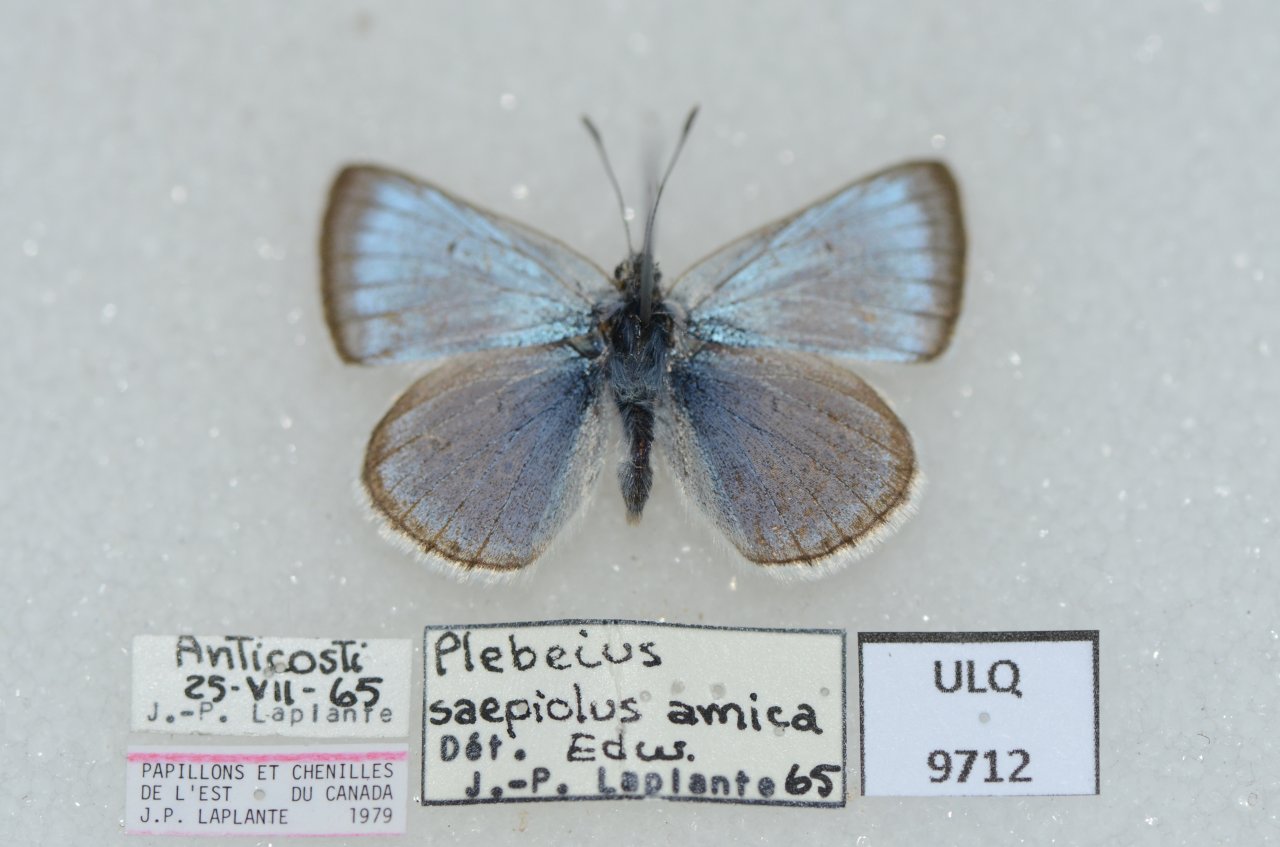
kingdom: Animalia
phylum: Arthropoda
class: Insecta
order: Lepidoptera
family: Lycaenidae
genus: Plebejus
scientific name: Plebejus saepiolus
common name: Greenish Blue
